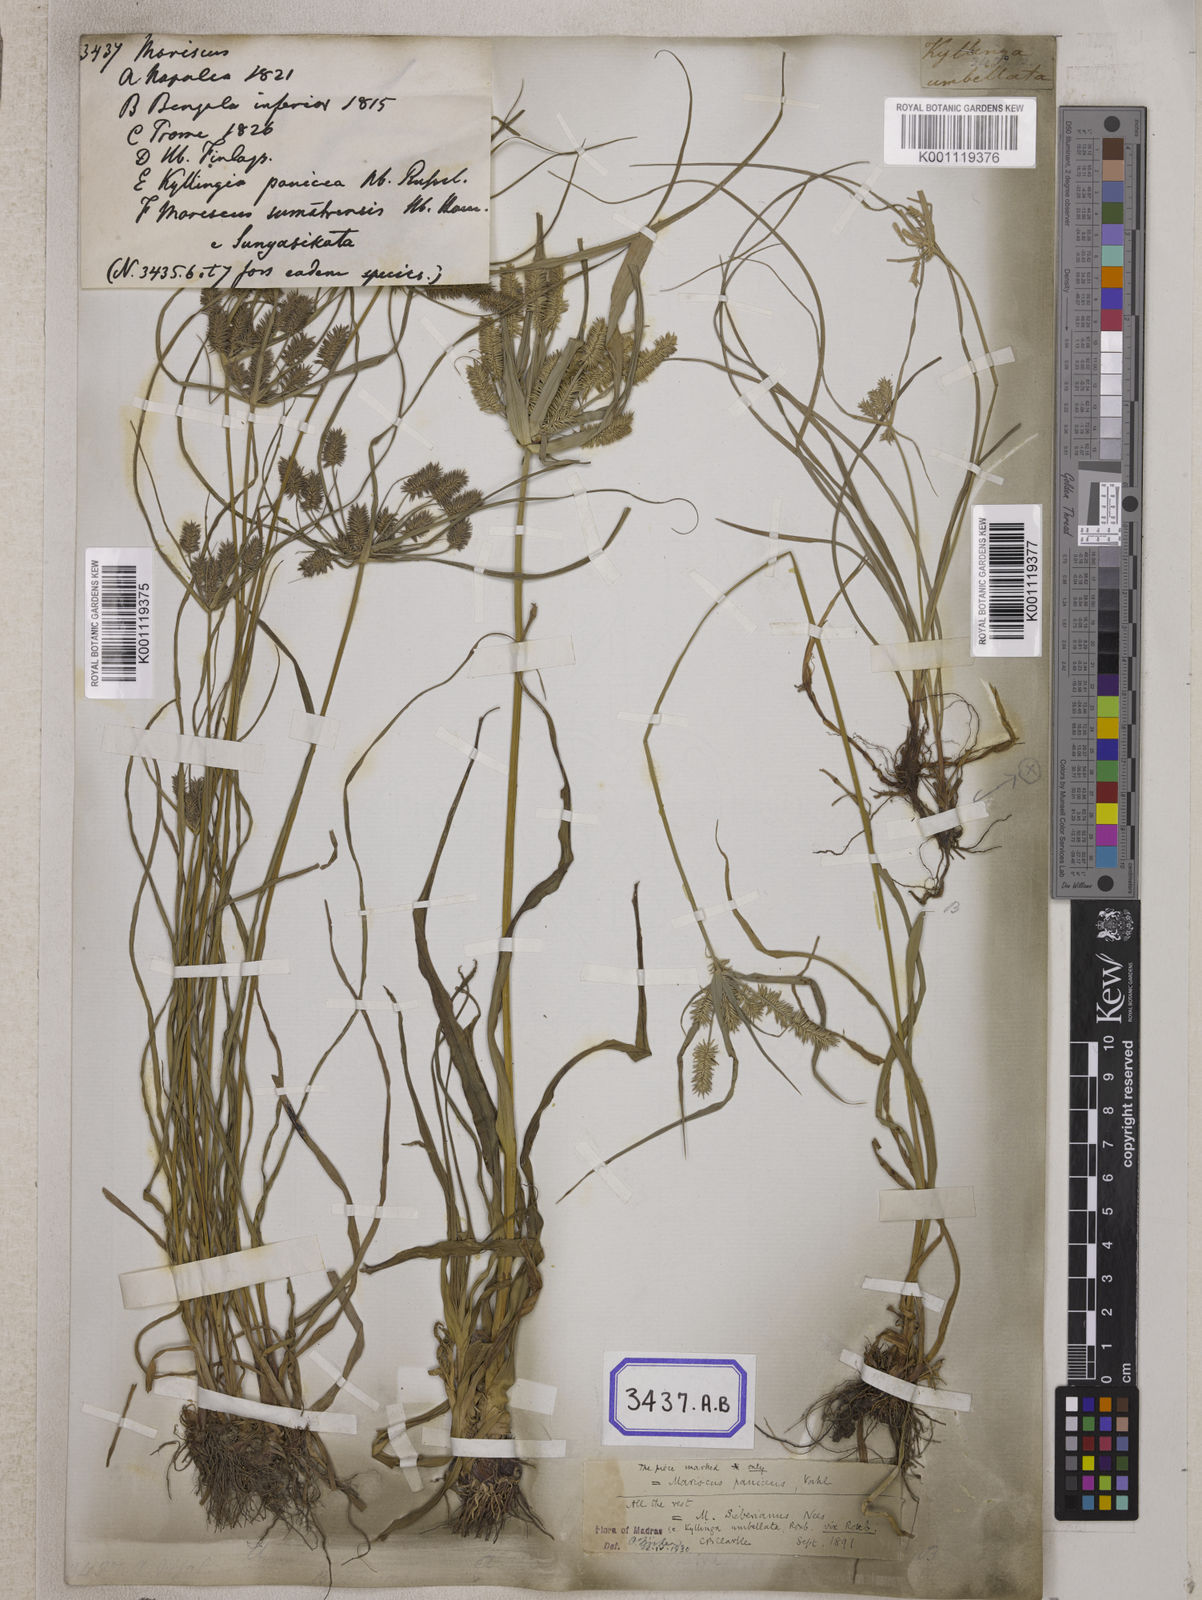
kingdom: Plantae
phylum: Tracheophyta
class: Liliopsida
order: Poales
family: Cyperaceae
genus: Mariscus
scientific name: Mariscus
